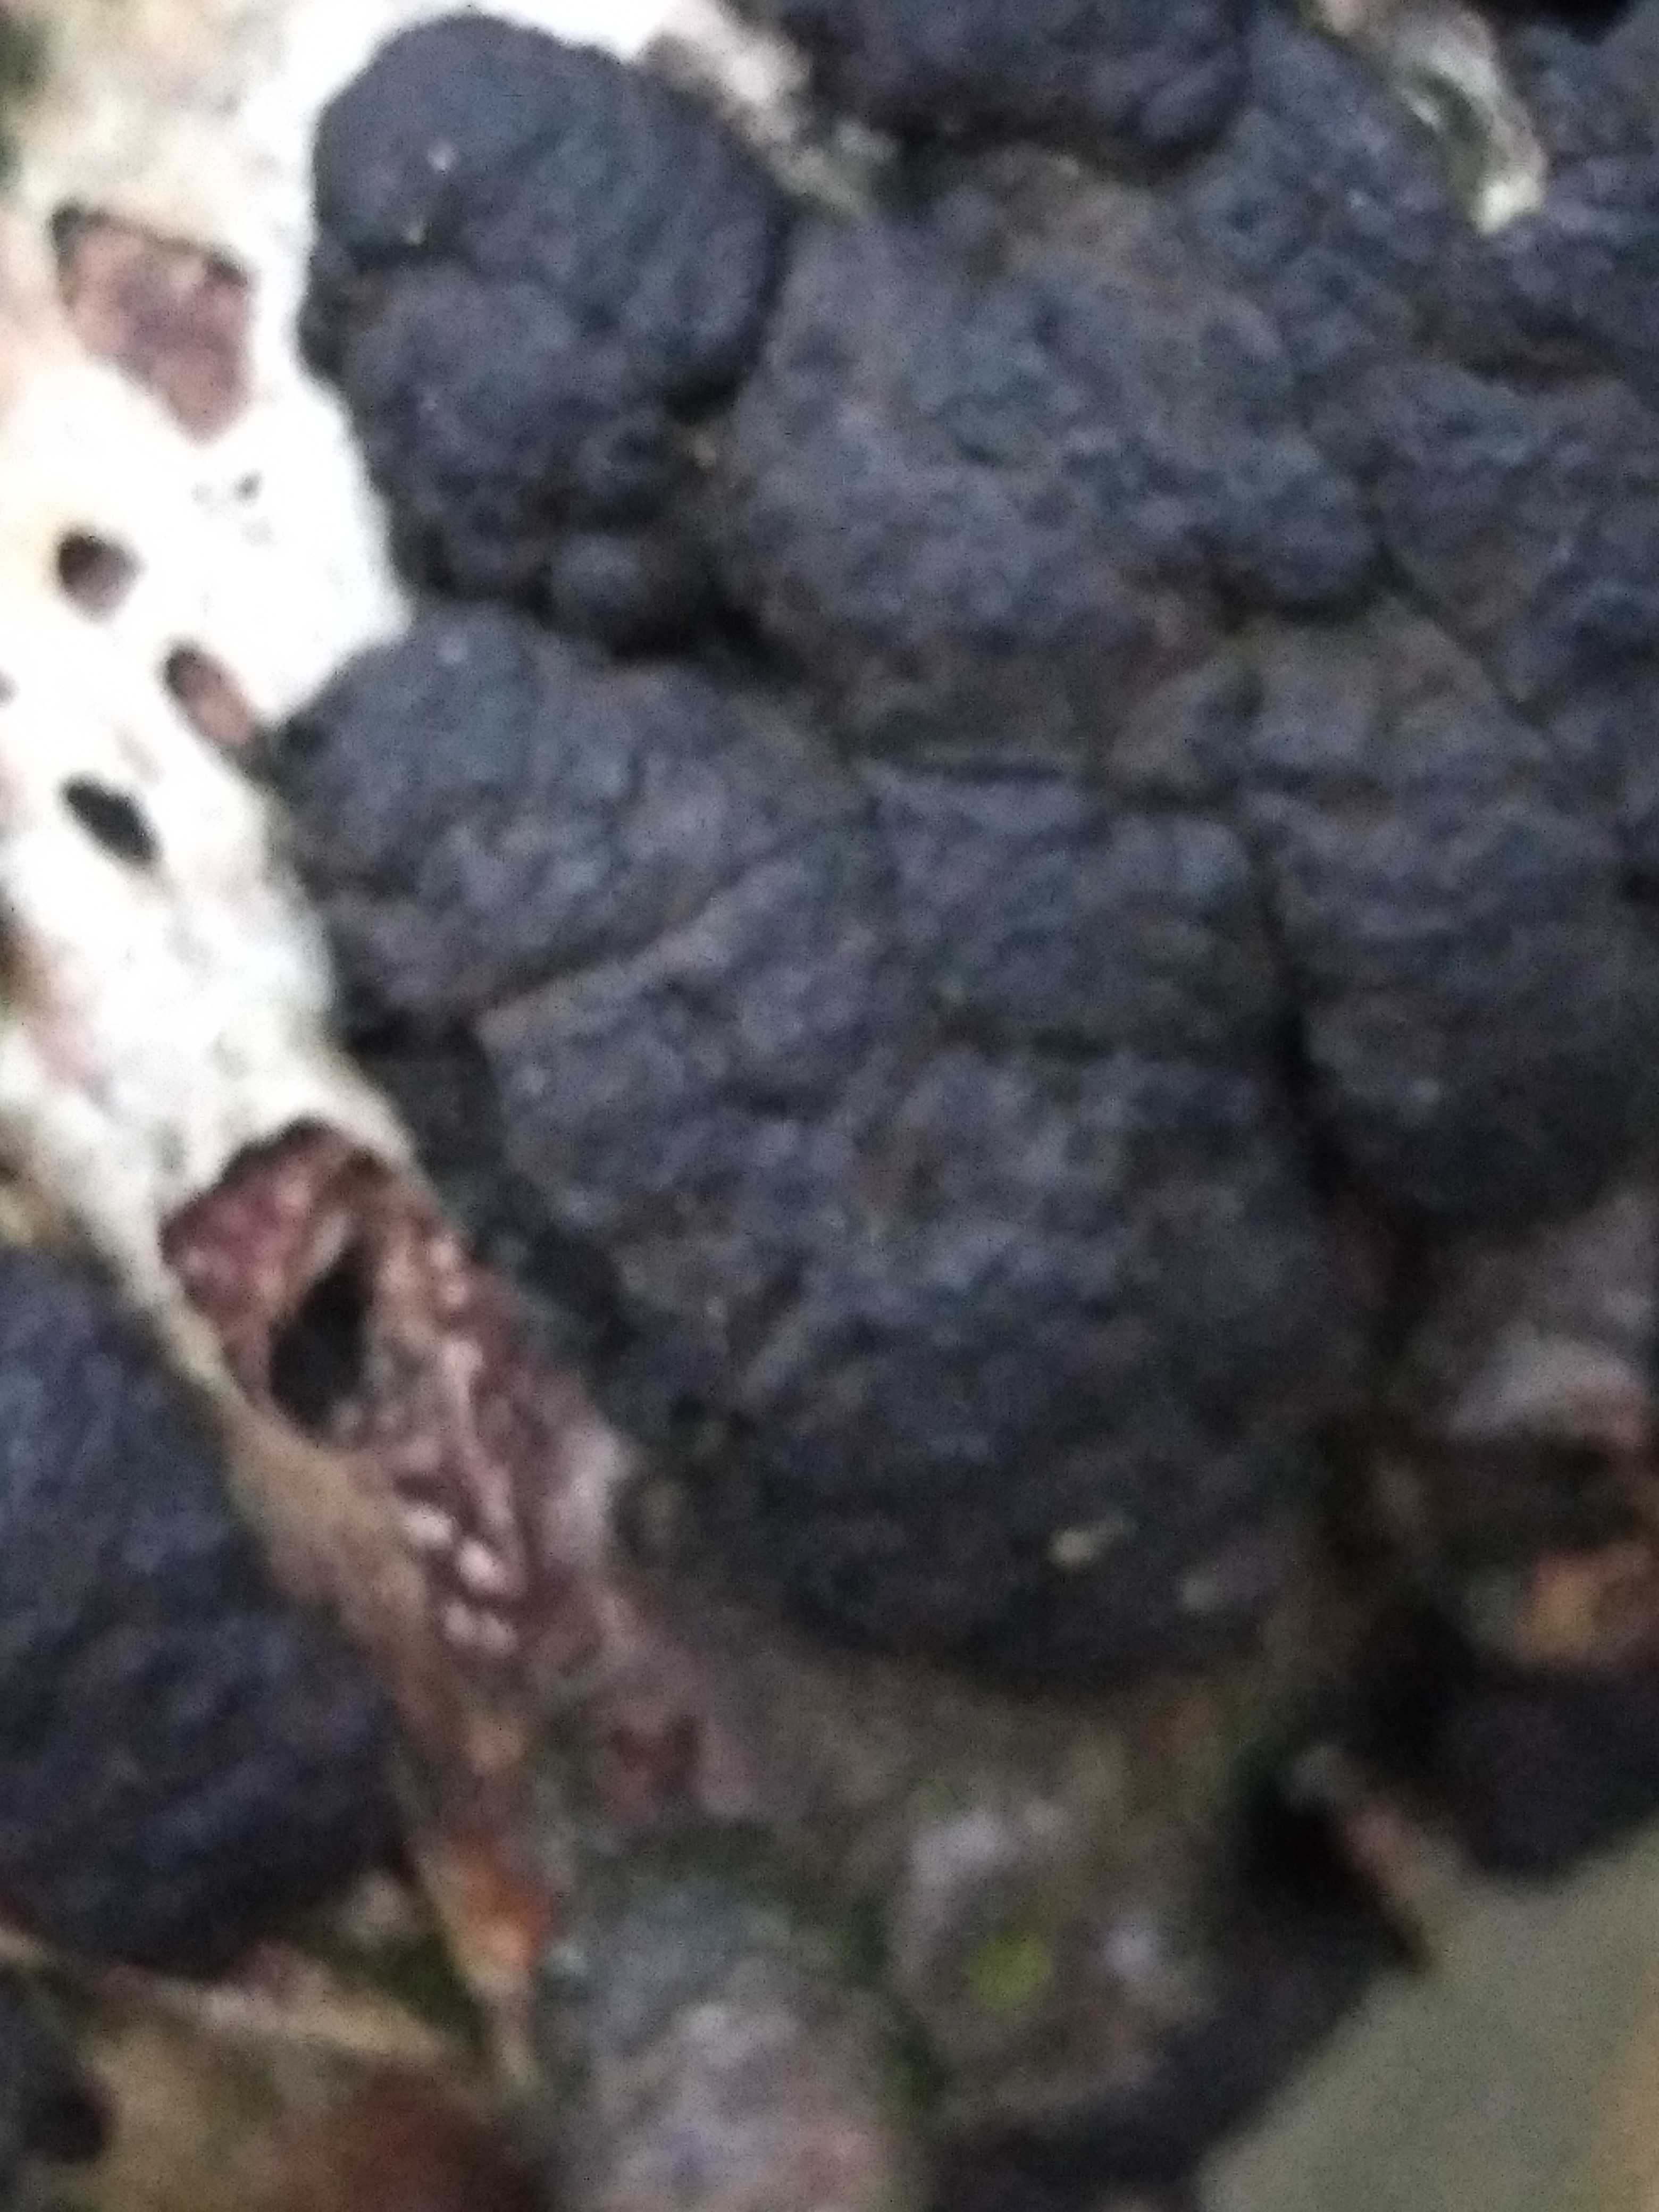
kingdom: Fungi
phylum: Ascomycota
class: Sordariomycetes
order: Xylariales
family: Hypoxylaceae
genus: Jackrogersella
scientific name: Jackrogersella multiformis
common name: foranderlig kulbær
